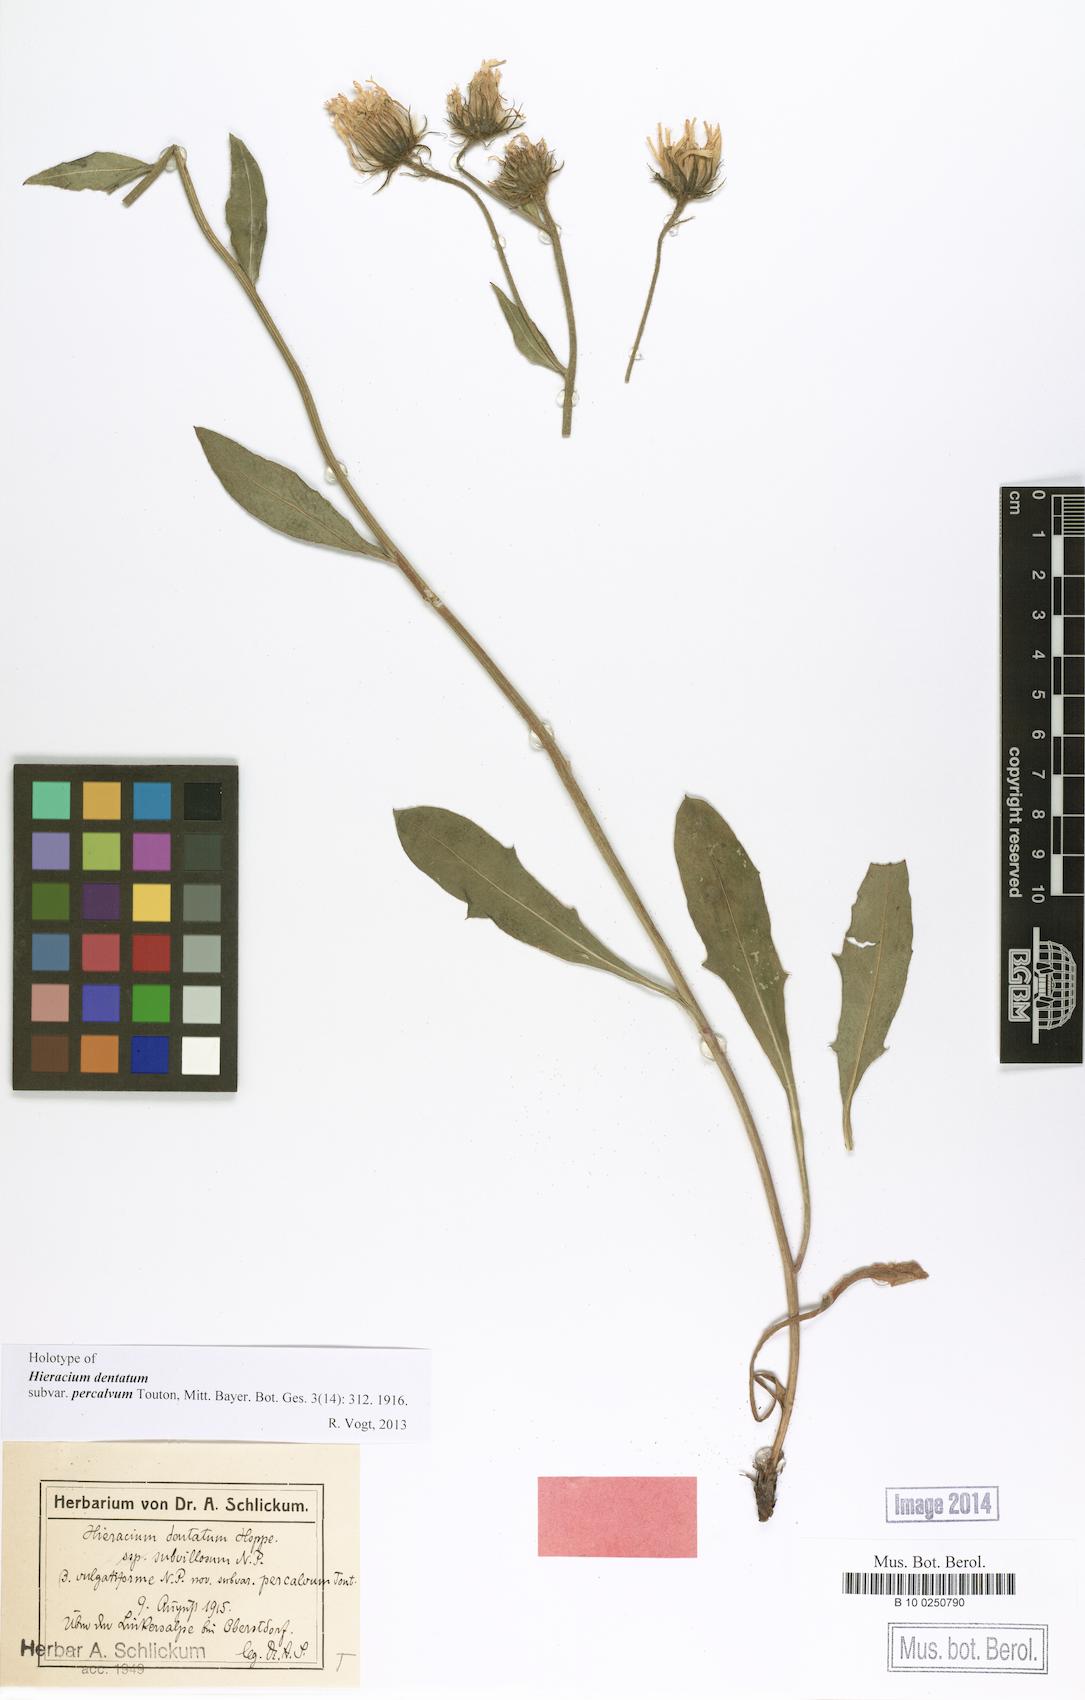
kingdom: Plantae
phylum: Tracheophyta
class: Magnoliopsida
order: Asterales
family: Asteraceae
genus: Hieracium
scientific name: Hieracium dentatum
